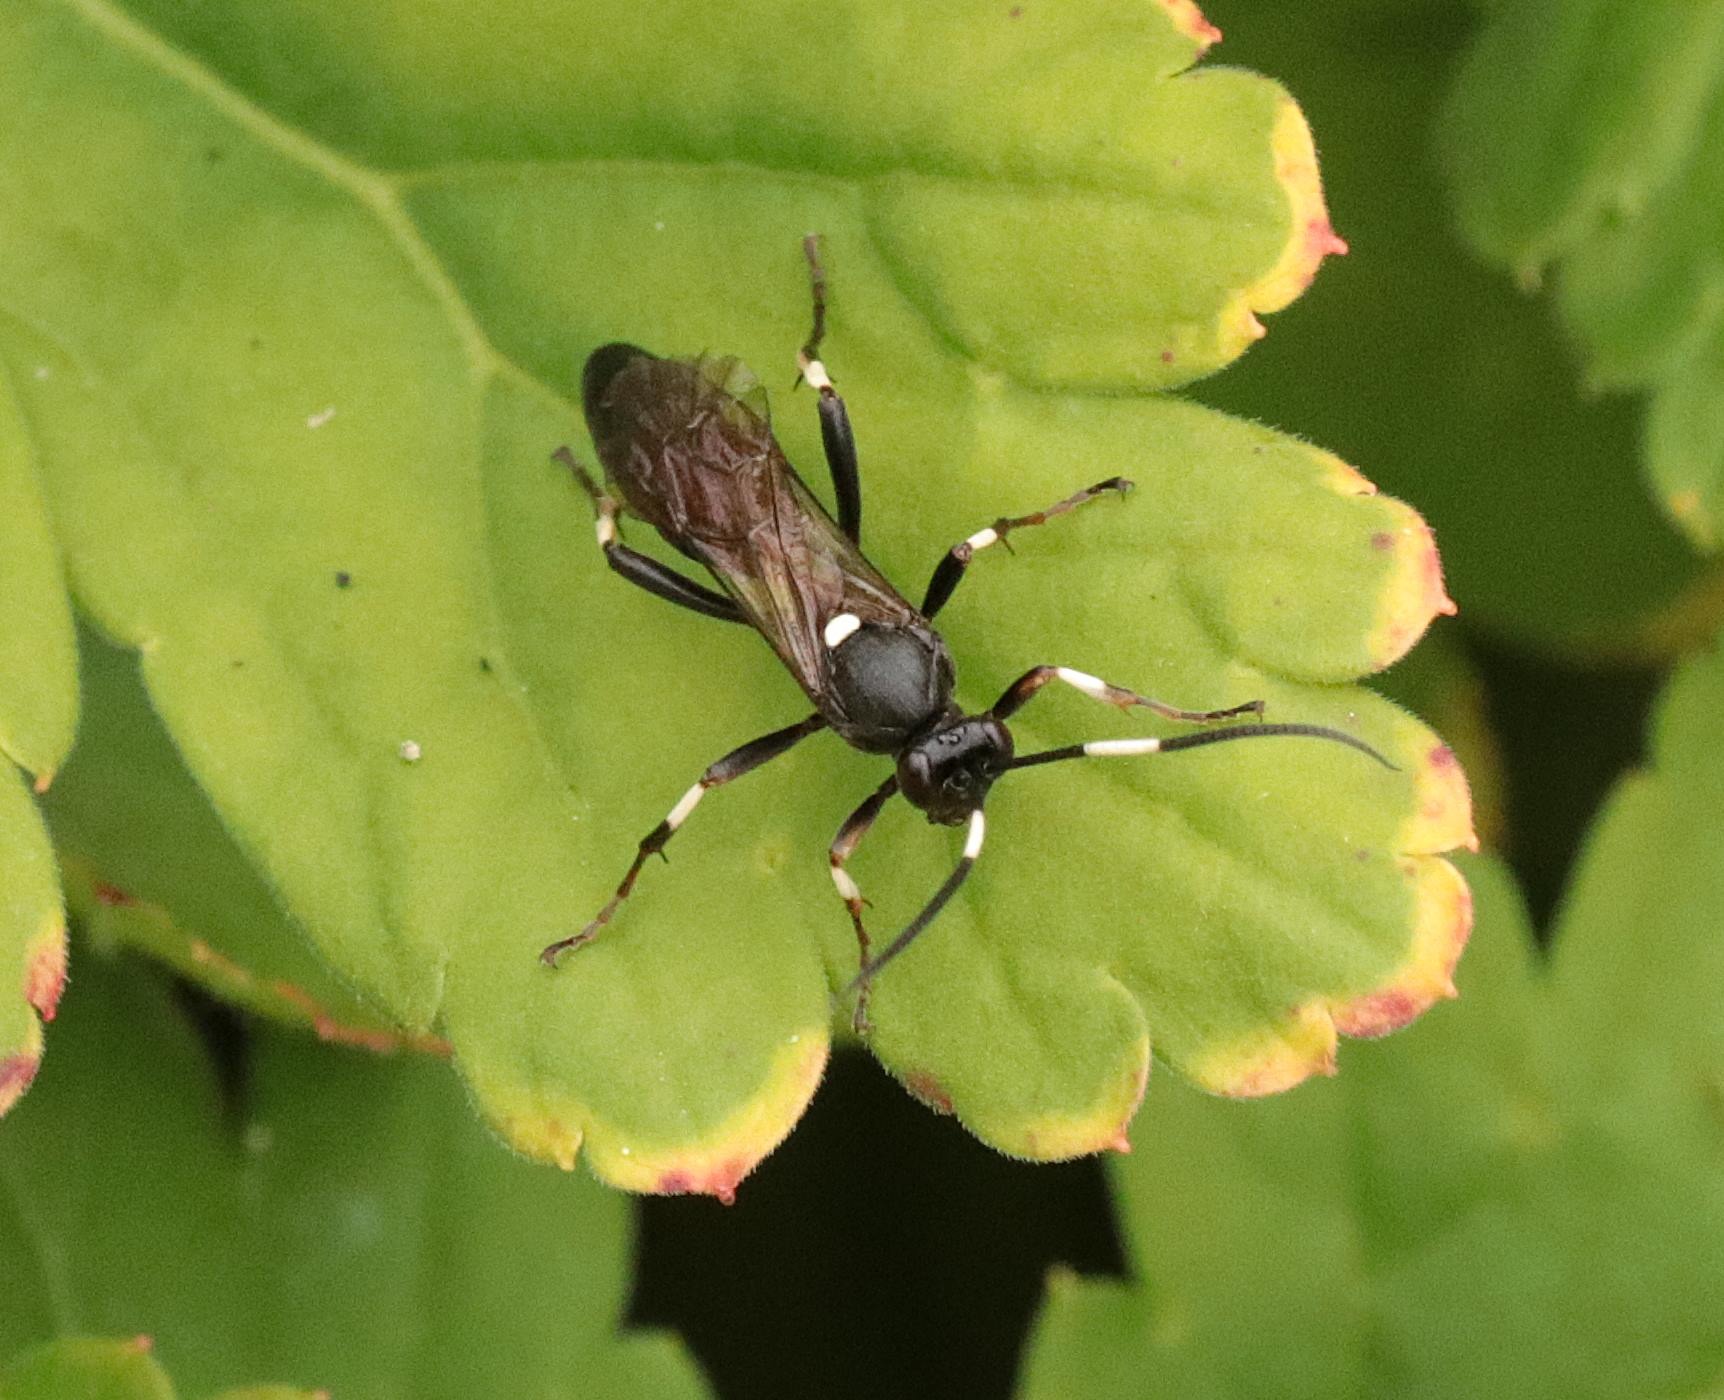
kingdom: Animalia
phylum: Arthropoda
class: Insecta
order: Hymenoptera
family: Ichneumonidae
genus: Stenichneumon
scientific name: Stenichneumon militarius
